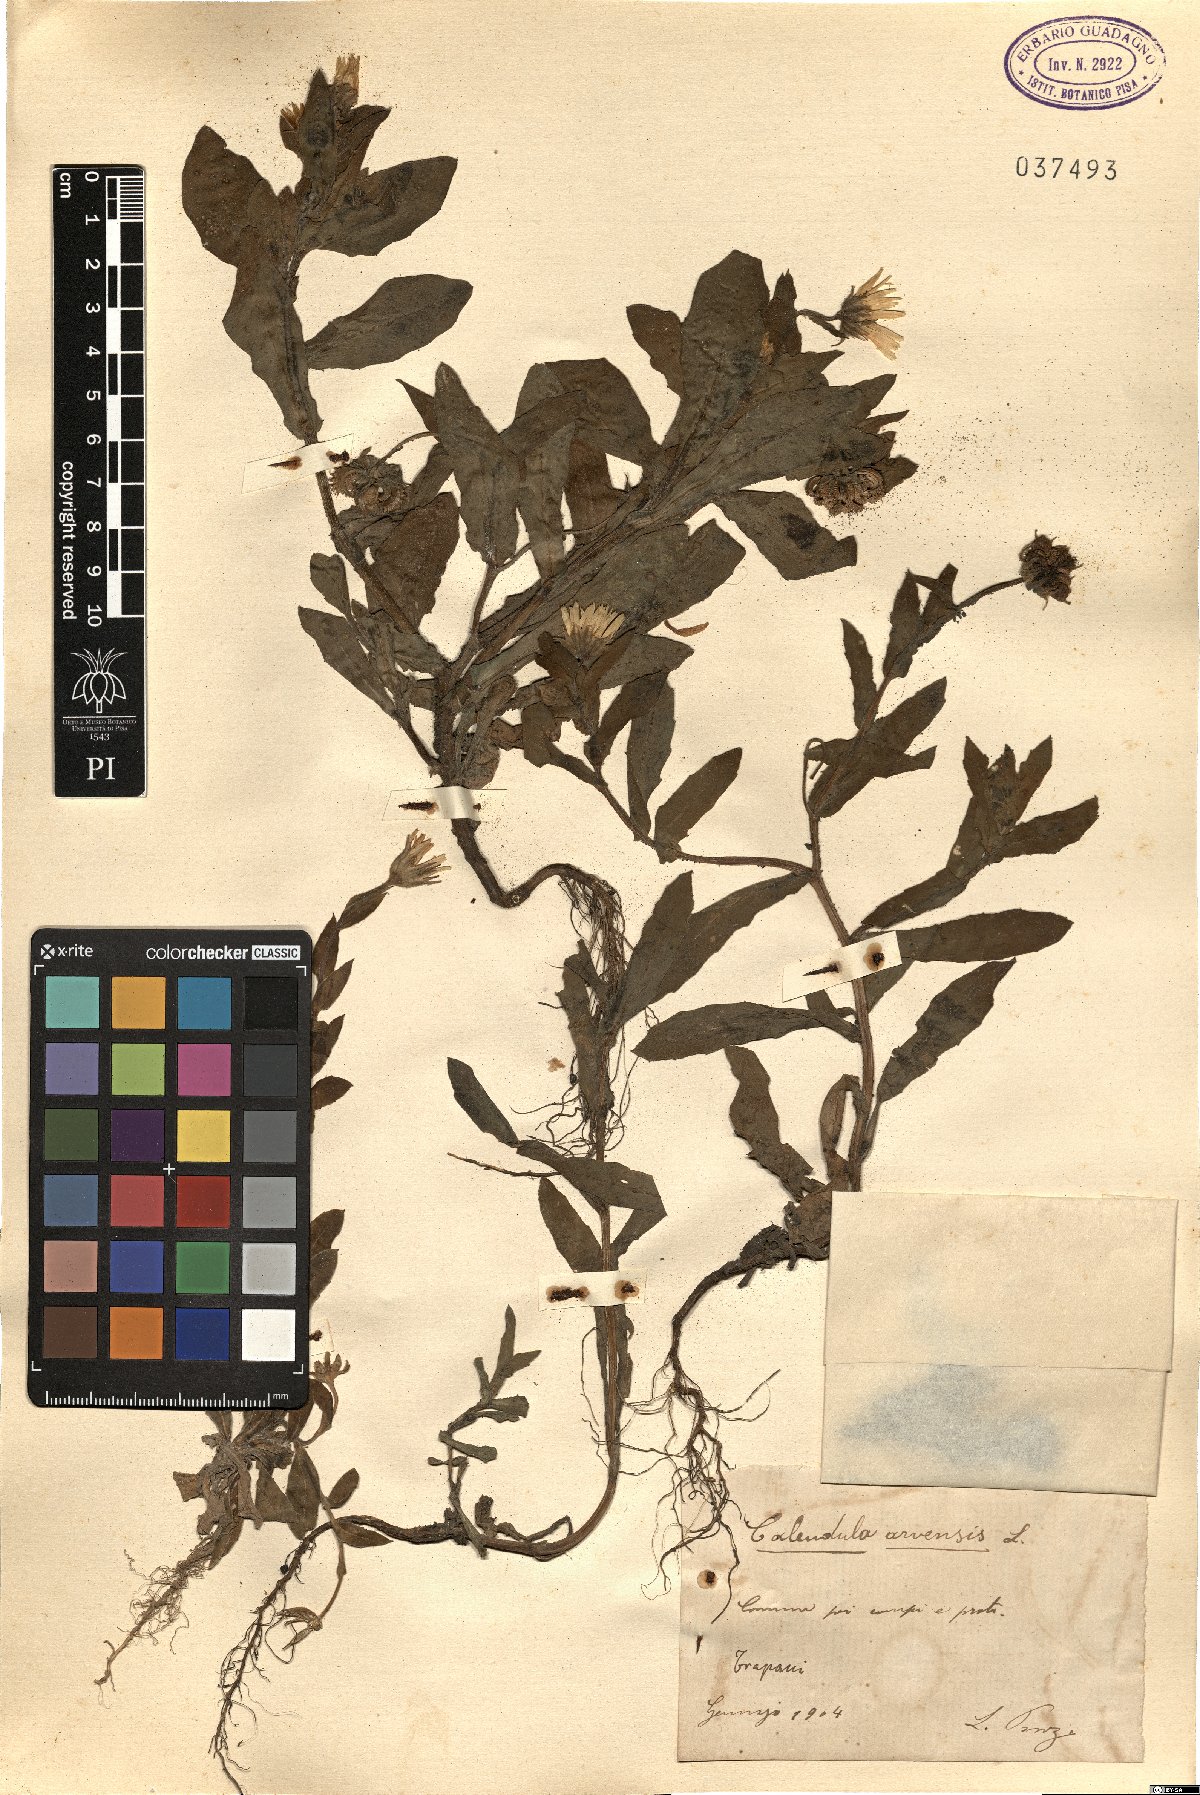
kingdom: Plantae
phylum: Tracheophyta
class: Magnoliopsida
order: Asterales
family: Asteraceae
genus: Calendula
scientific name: Calendula arvensis
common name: Field marigold
